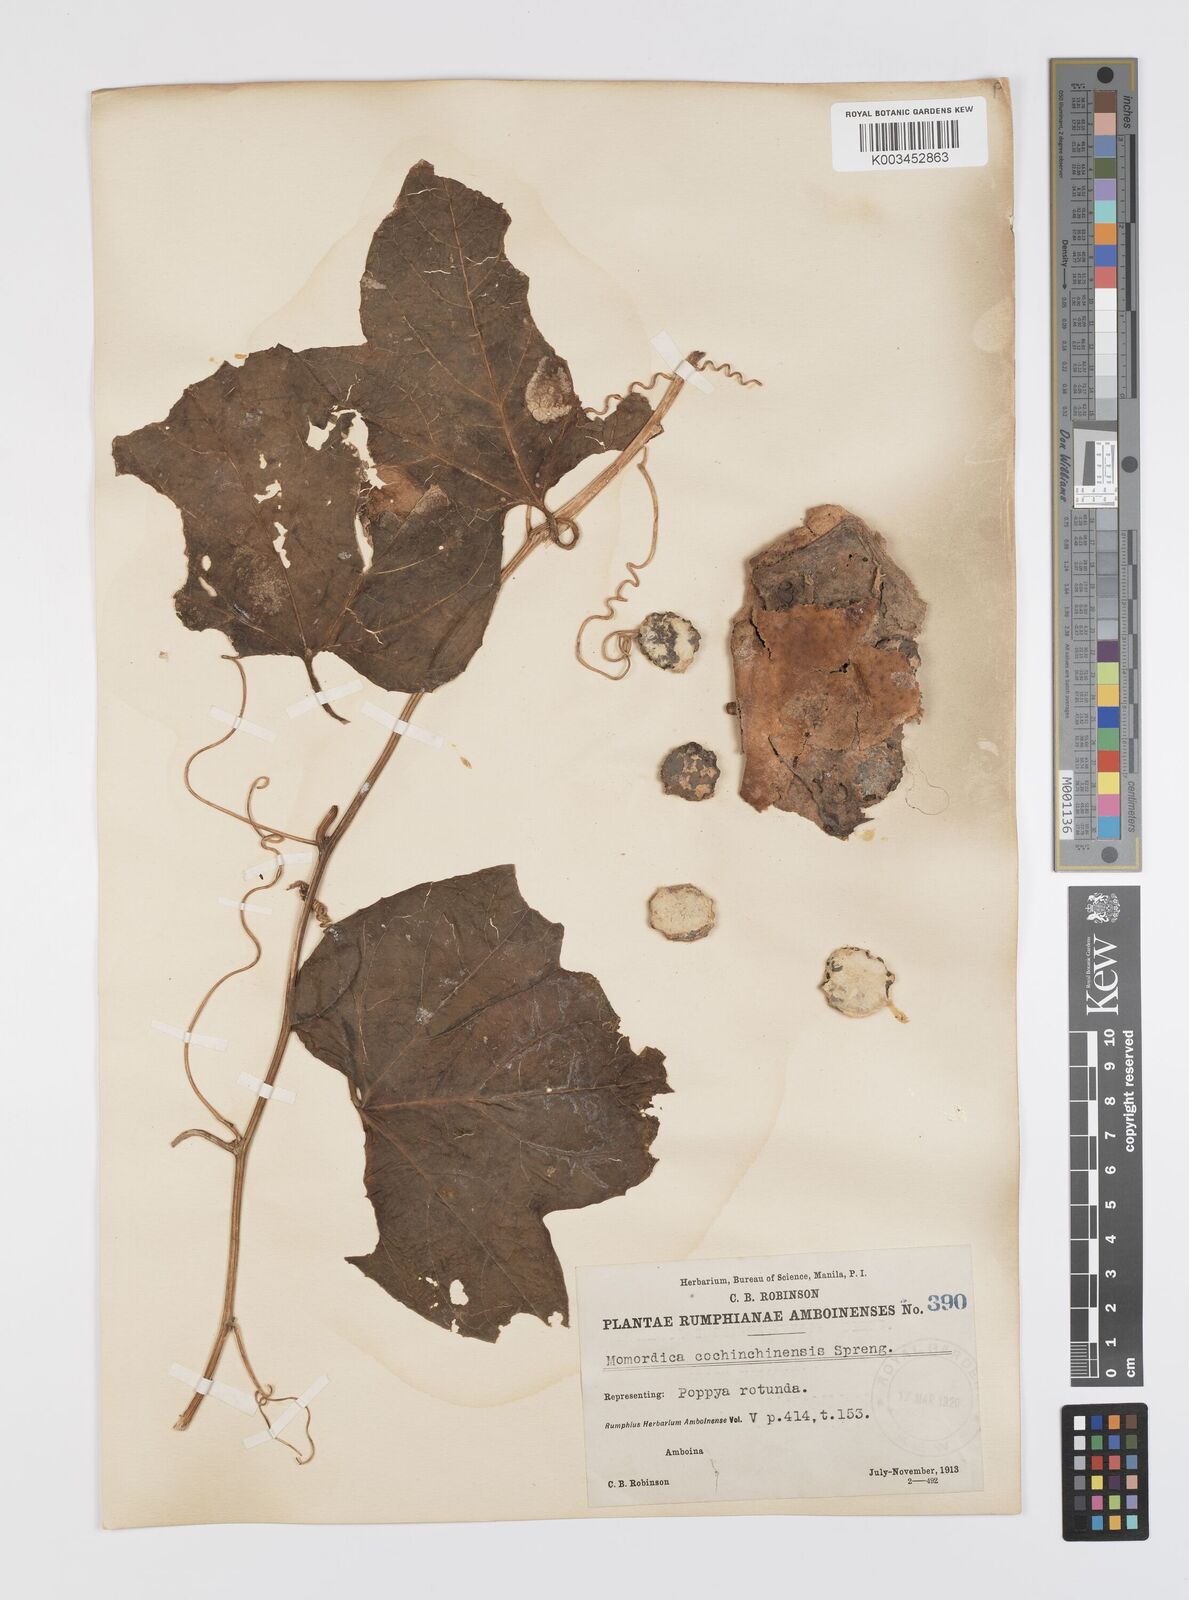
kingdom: Plantae
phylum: Tracheophyta
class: Magnoliopsida
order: Cucurbitales
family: Cucurbitaceae
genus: Momordica
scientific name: Momordica cochinchinensis
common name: Chinese bitter-cucumber
